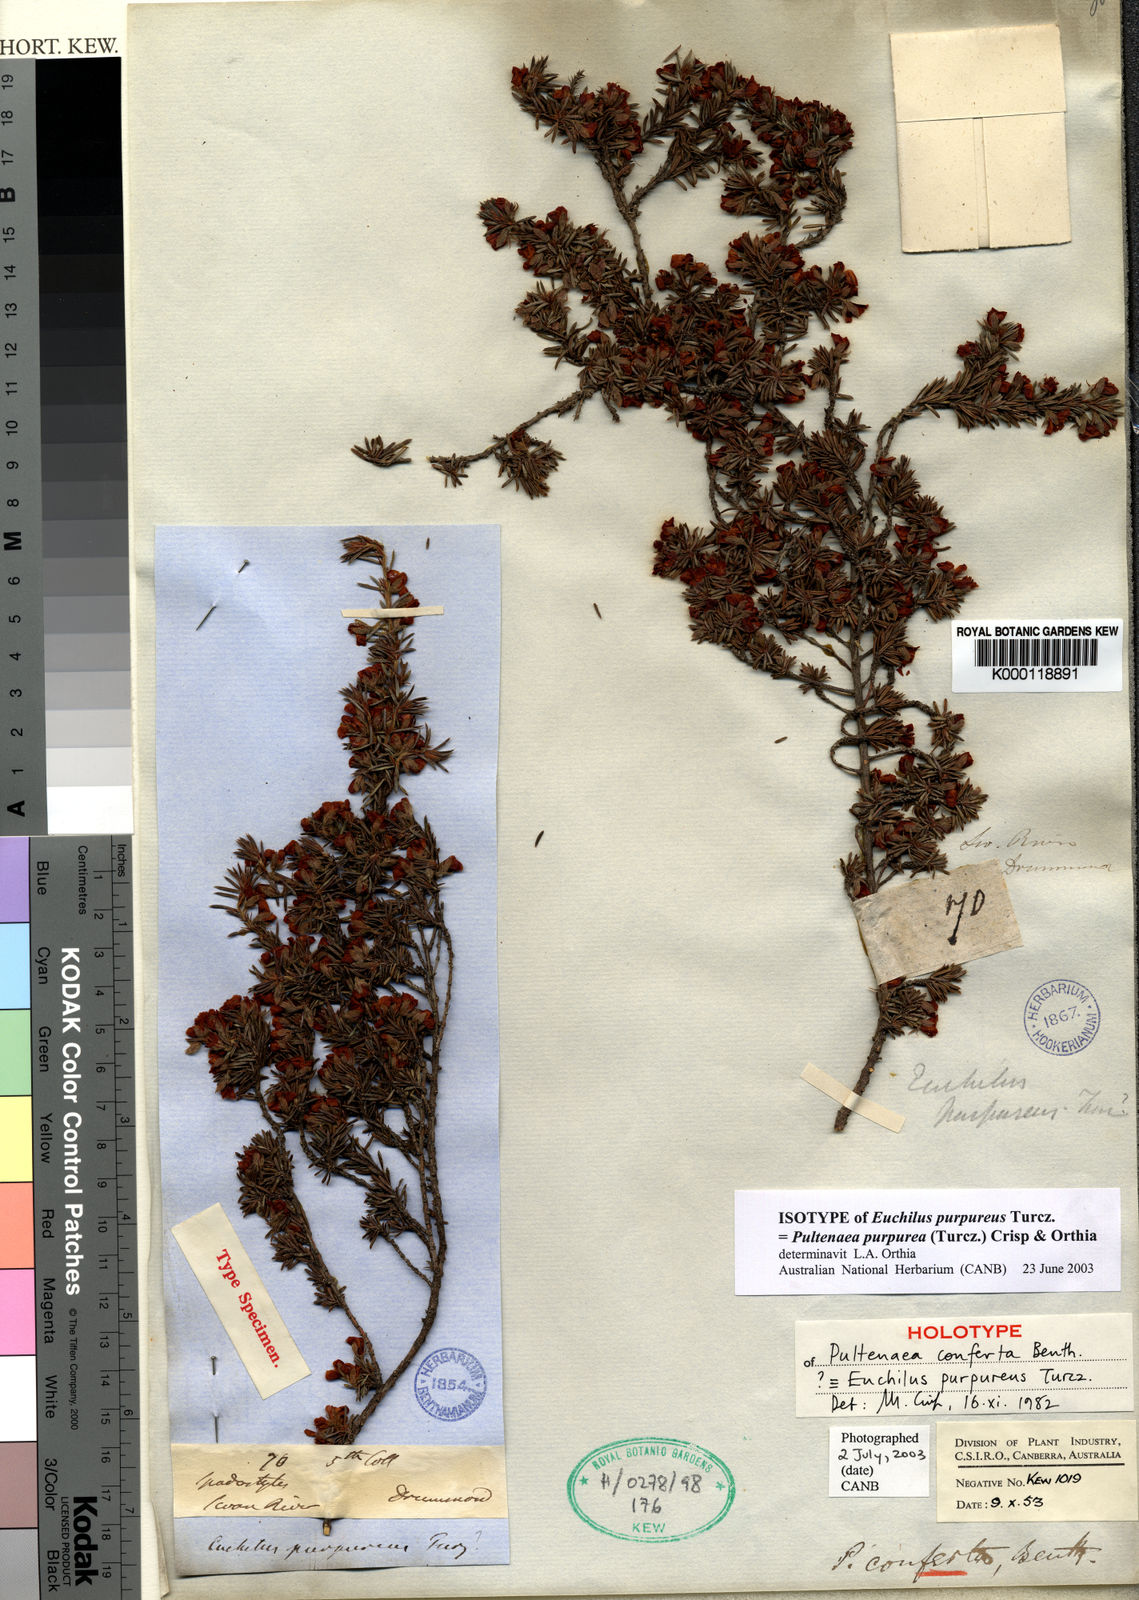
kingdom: Plantae
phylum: Tracheophyta
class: Magnoliopsida
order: Fabales
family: Fabaceae
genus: Pultenaea
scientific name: Pultenaea purpurea
